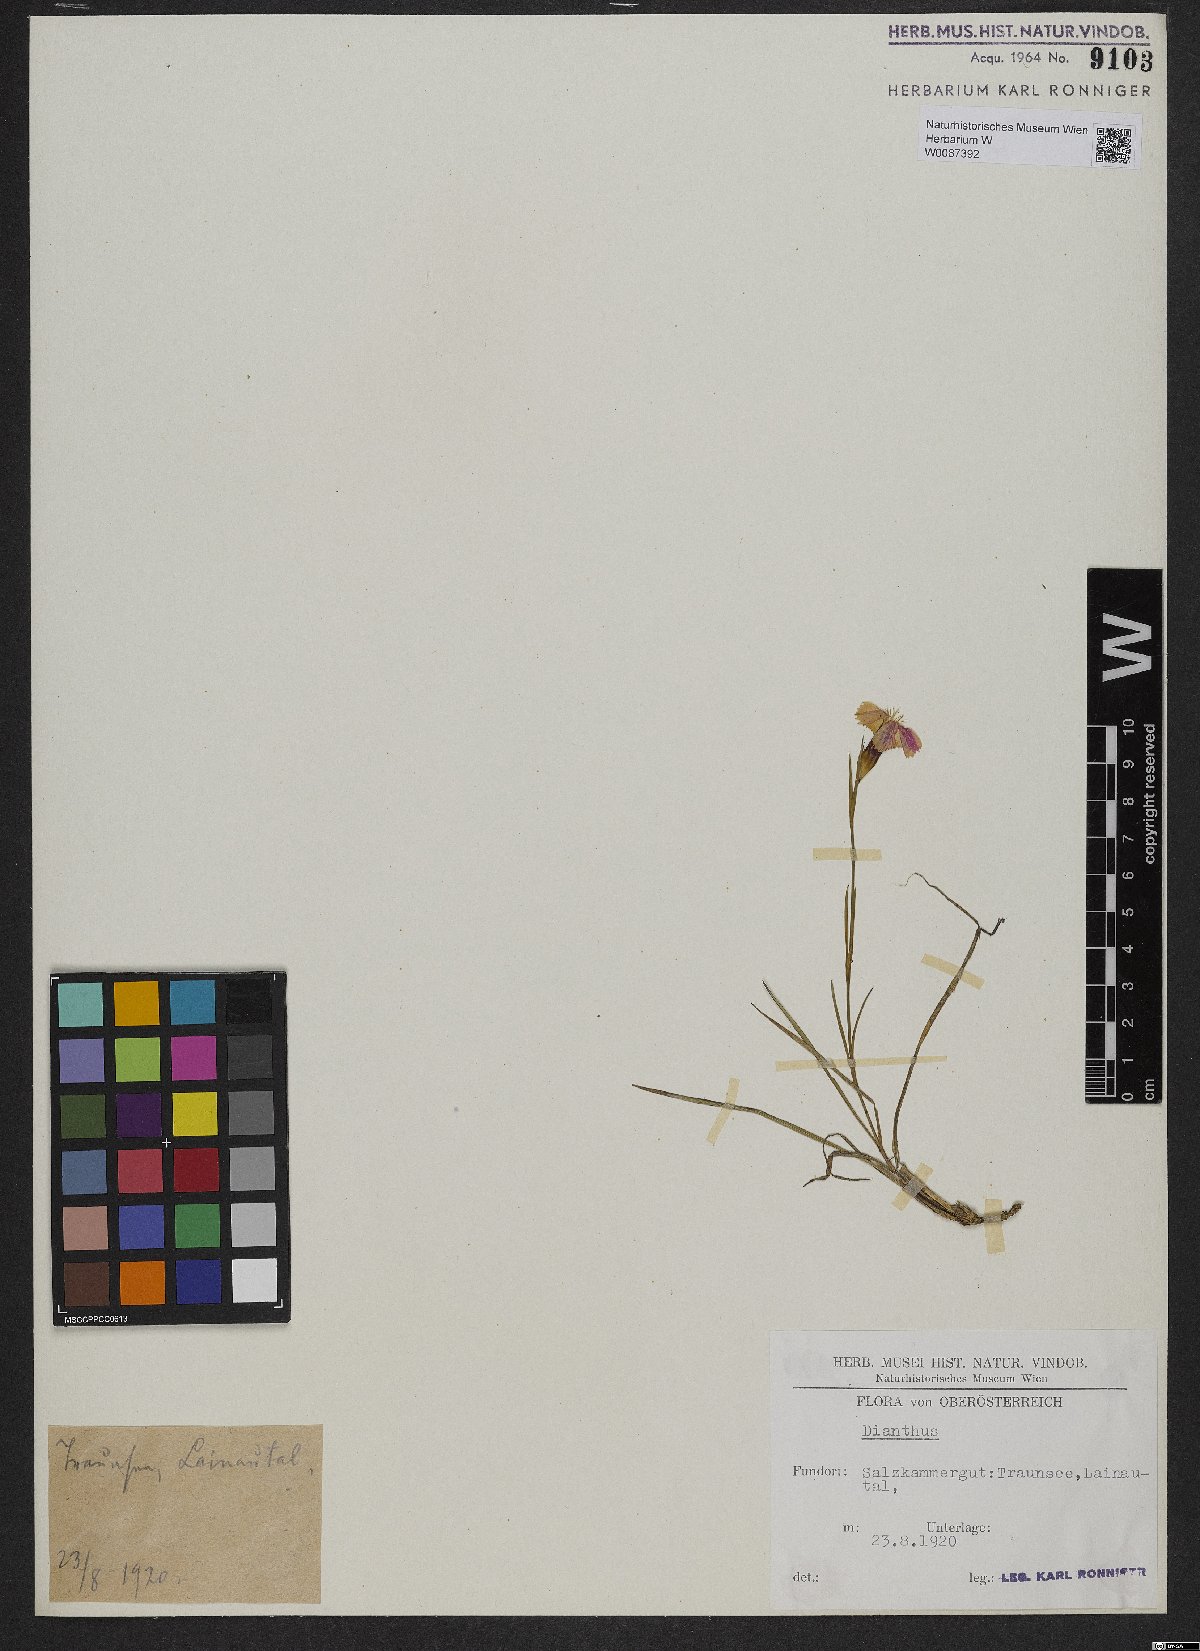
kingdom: Plantae
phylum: Tracheophyta
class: Magnoliopsida
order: Caryophyllales
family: Caryophyllaceae
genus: Dianthus
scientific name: Dianthus
